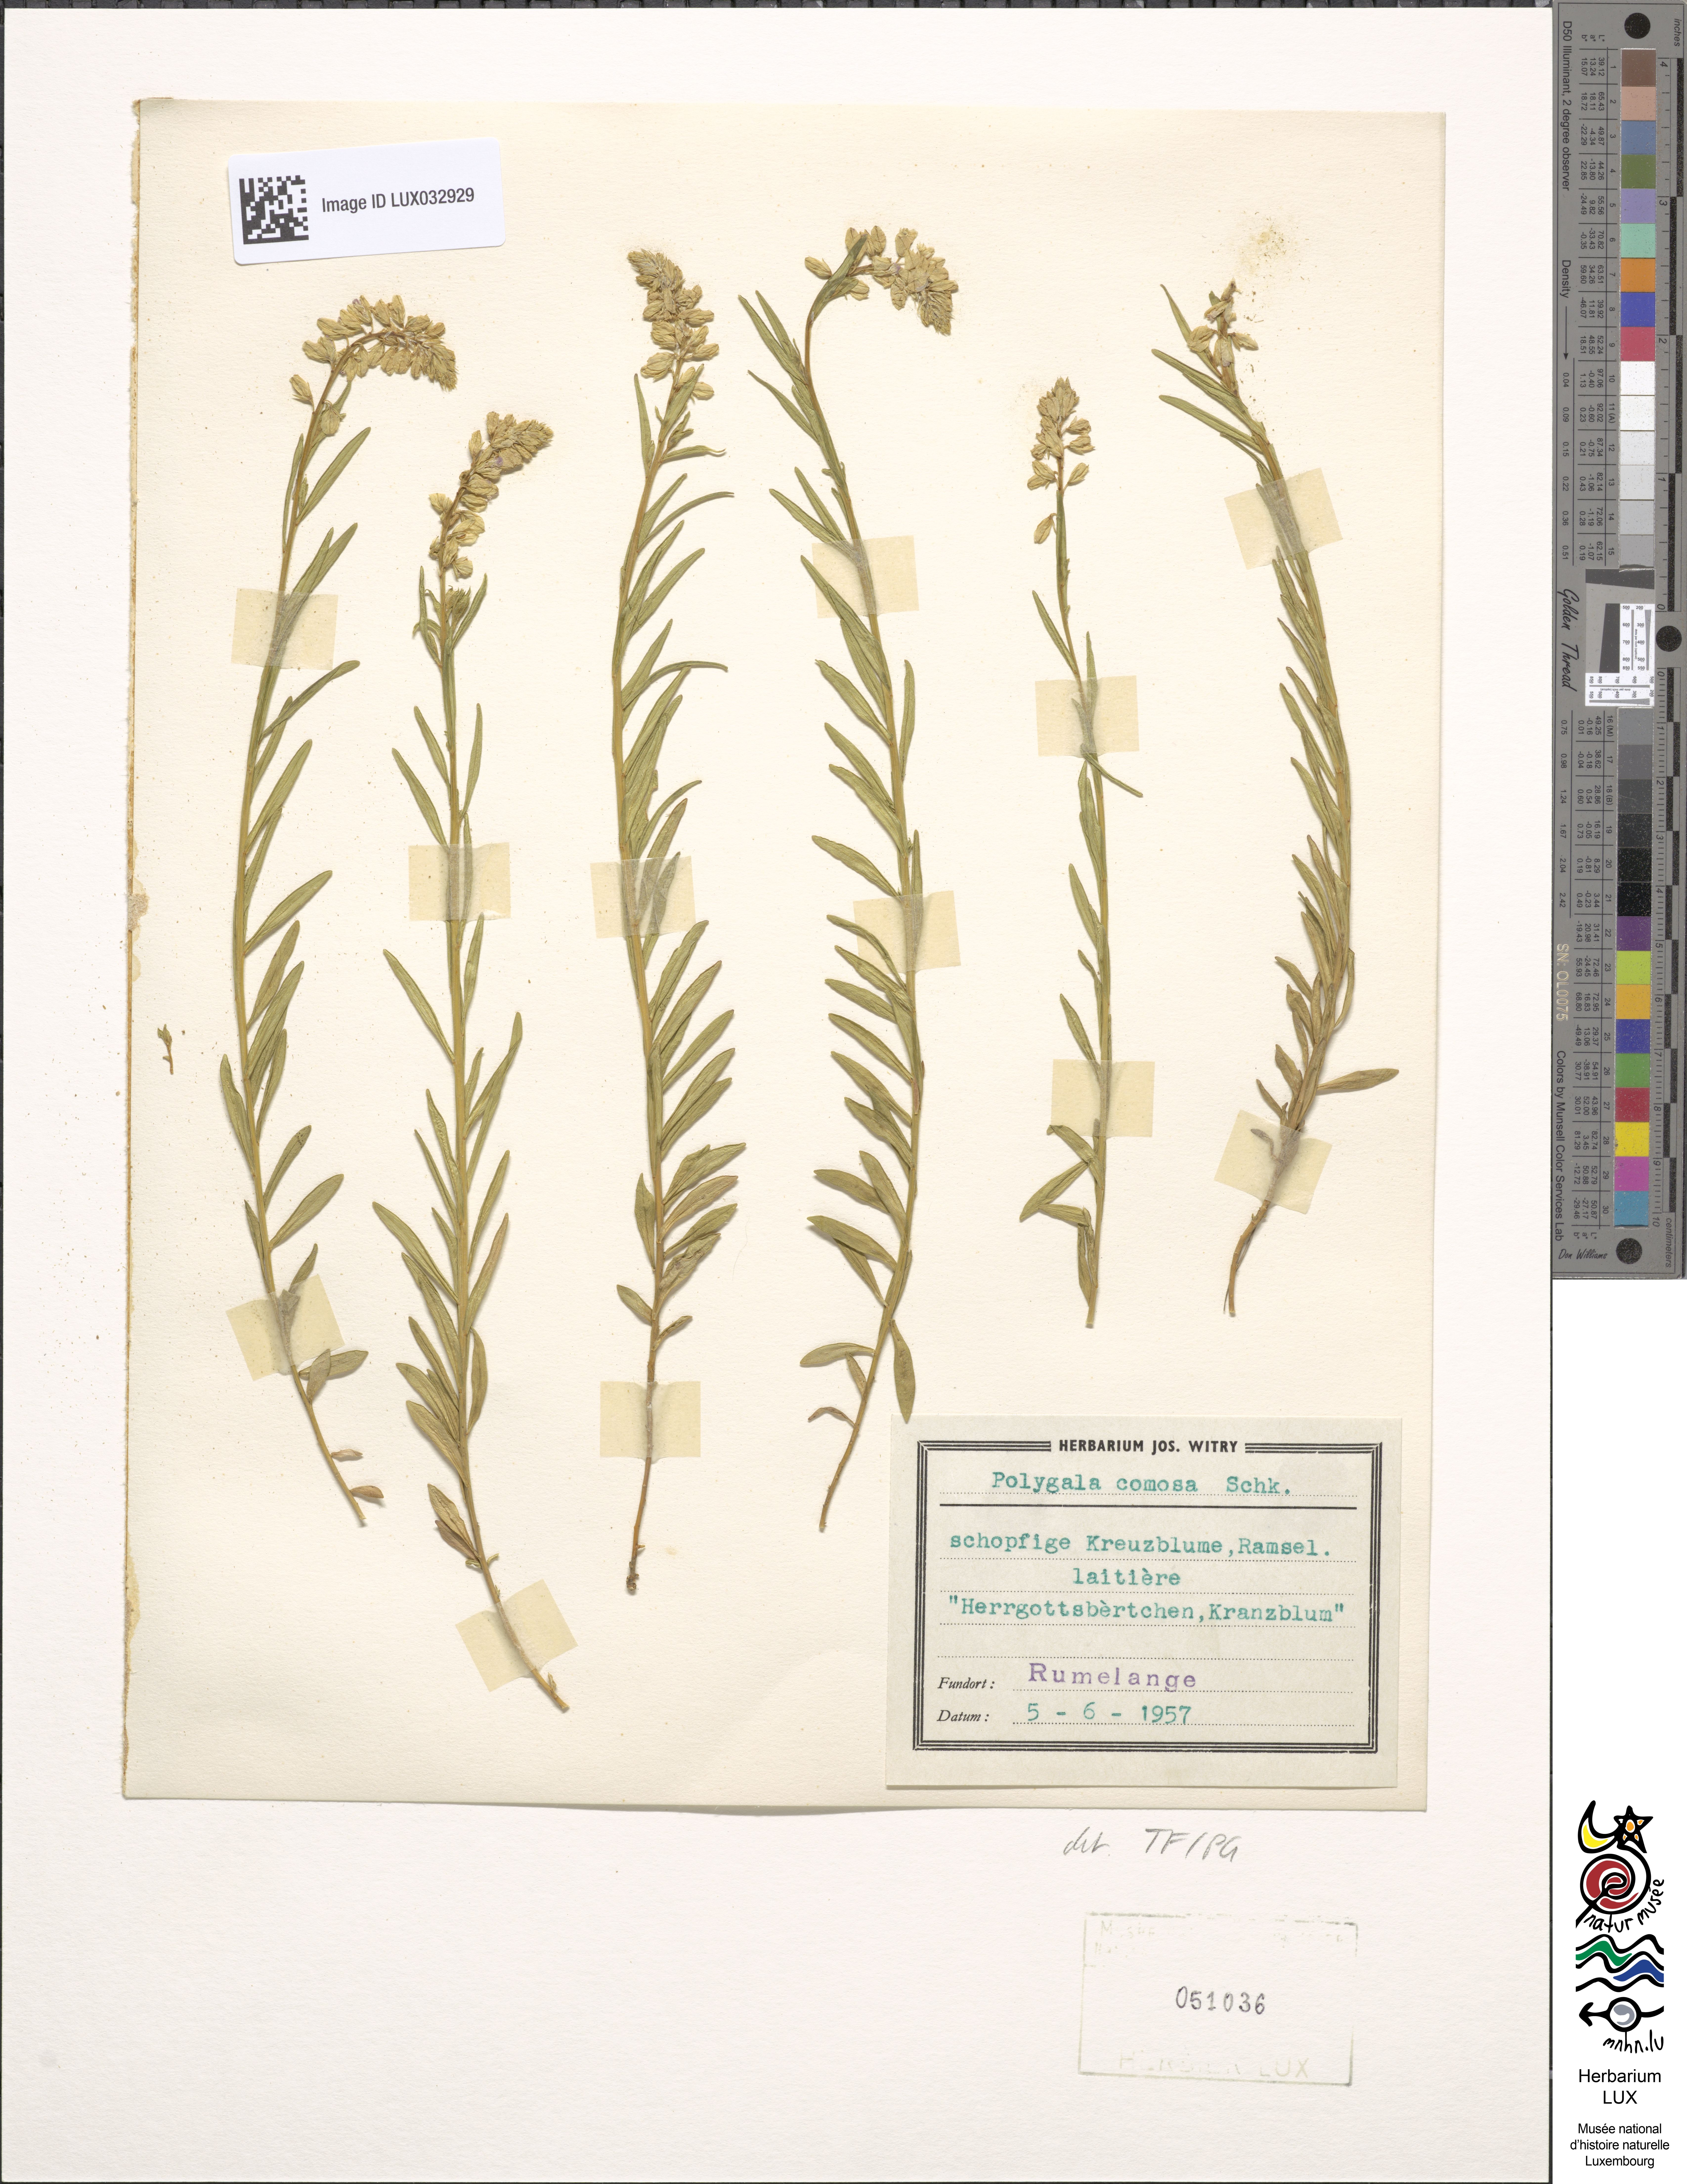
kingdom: Plantae
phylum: Tracheophyta
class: Magnoliopsida
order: Fabales
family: Polygalaceae
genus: Polygala
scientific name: Polygala comosa
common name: Tufted milkwort
